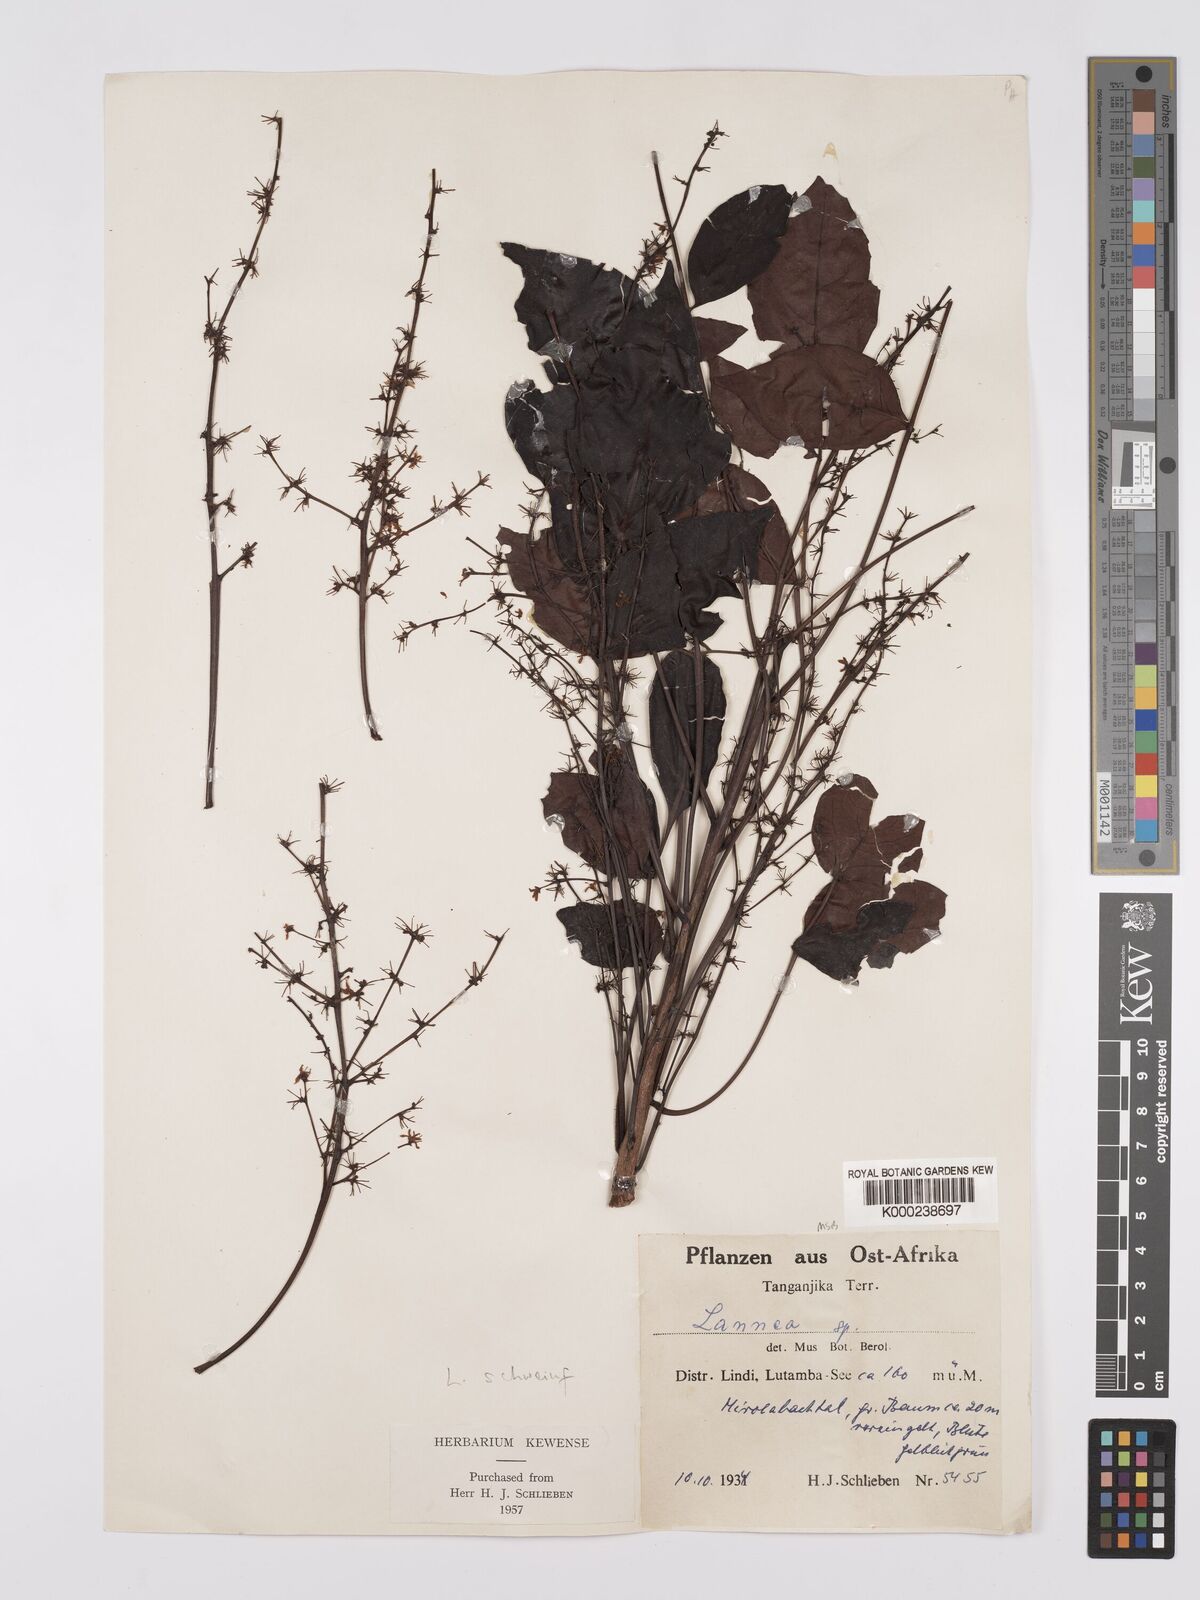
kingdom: Plantae
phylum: Tracheophyta
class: Magnoliopsida
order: Sapindales
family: Anacardiaceae
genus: Lannea
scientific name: Lannea schweinfurthii
